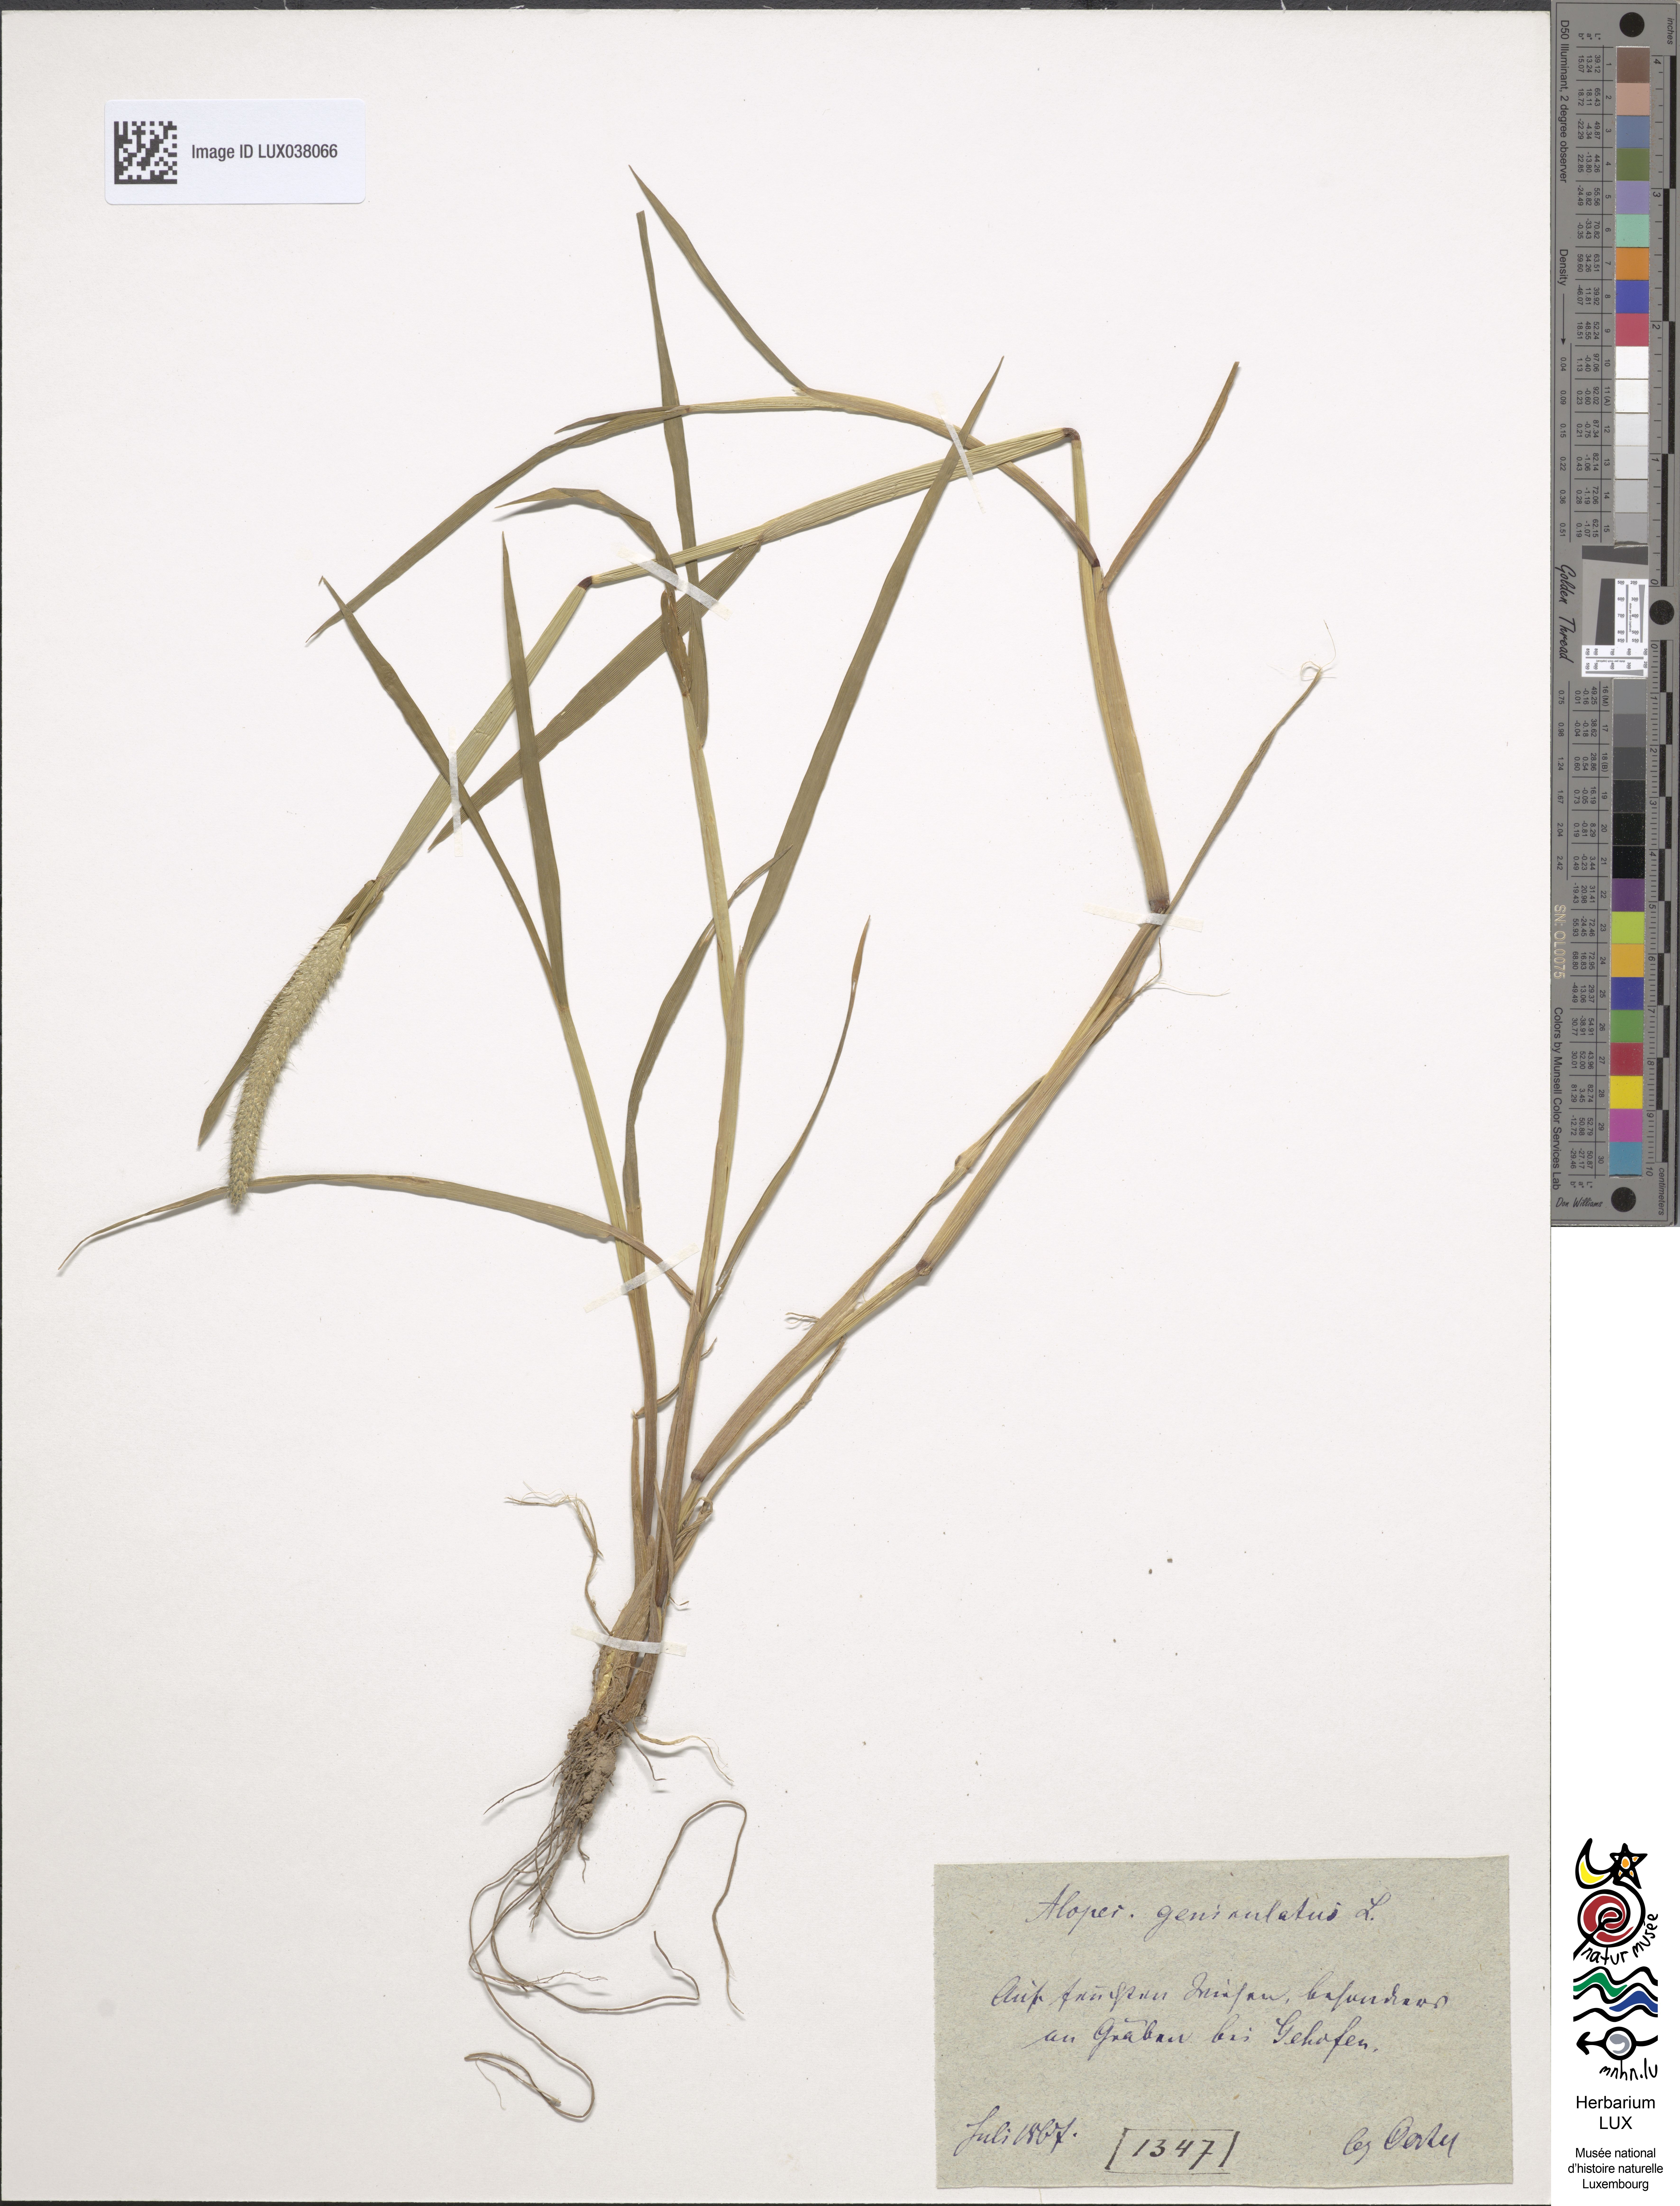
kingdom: Plantae
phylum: Tracheophyta
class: Liliopsida
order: Poales
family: Poaceae
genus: Alopecurus
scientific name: Alopecurus geniculatus
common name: Water foxtail
